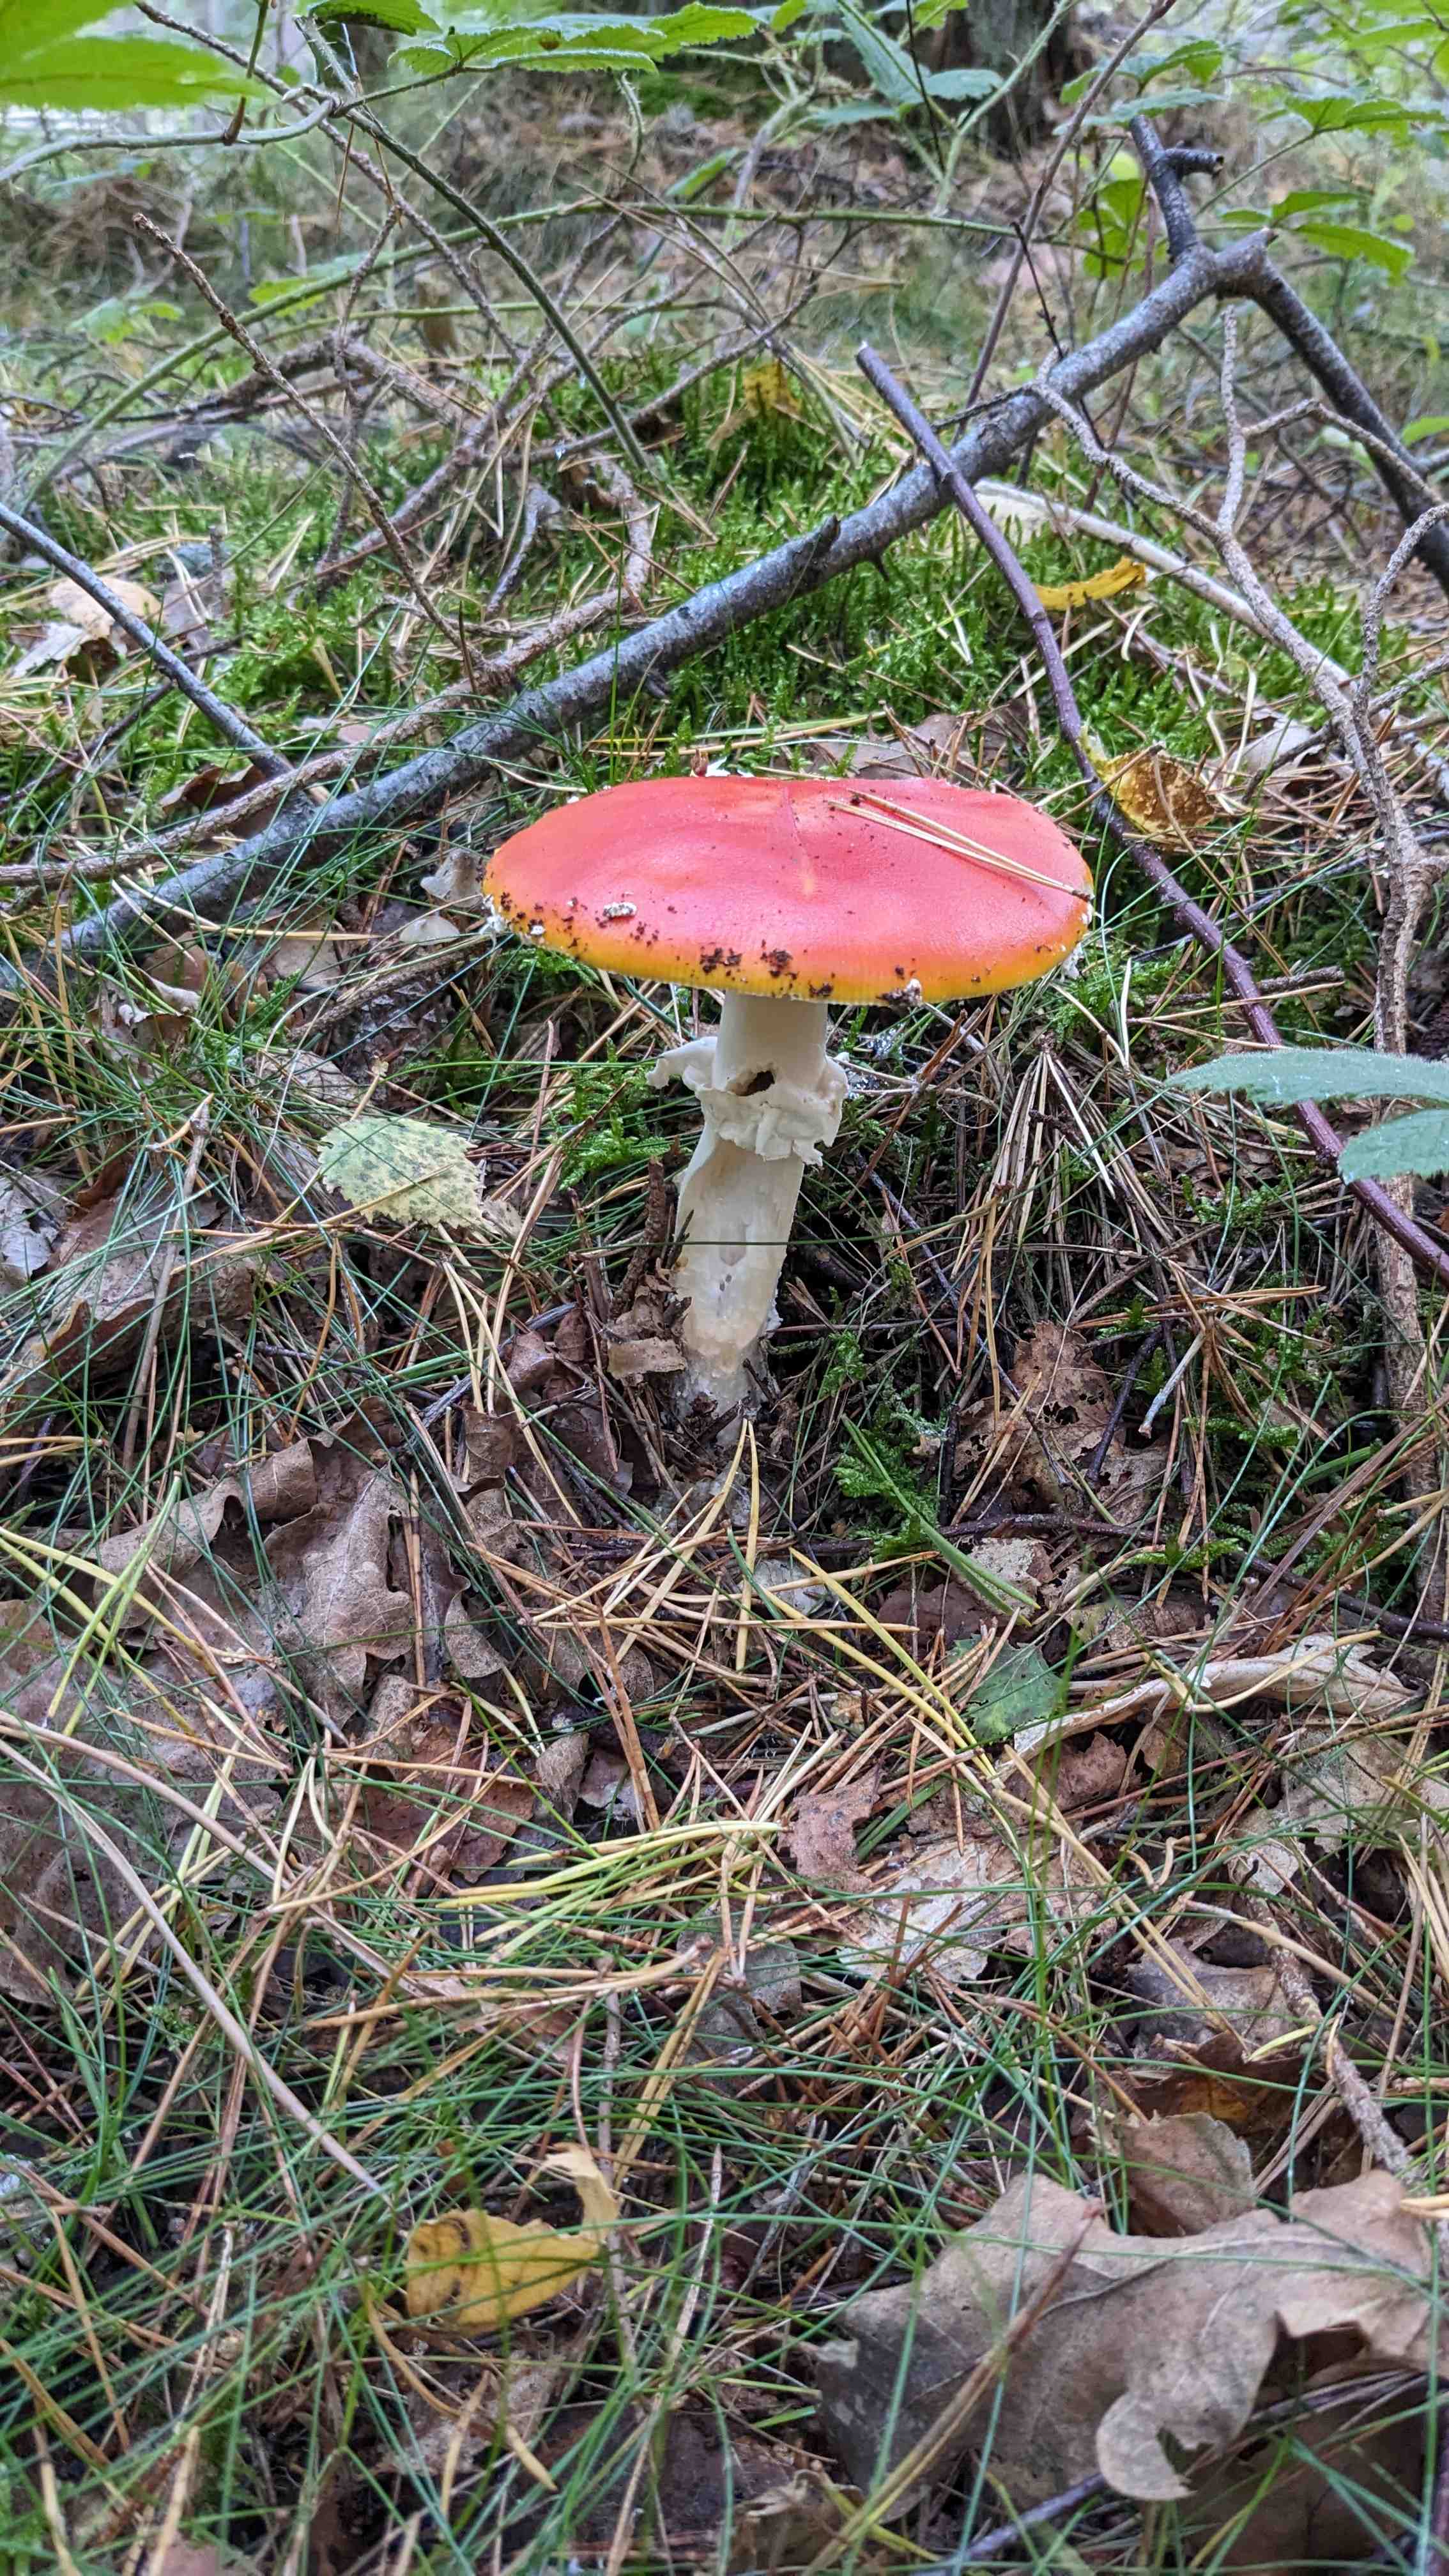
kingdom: Fungi
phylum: Basidiomycota
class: Agaricomycetes
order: Agaricales
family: Amanitaceae
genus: Amanita
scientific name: Amanita muscaria
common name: rød fluesvamp
